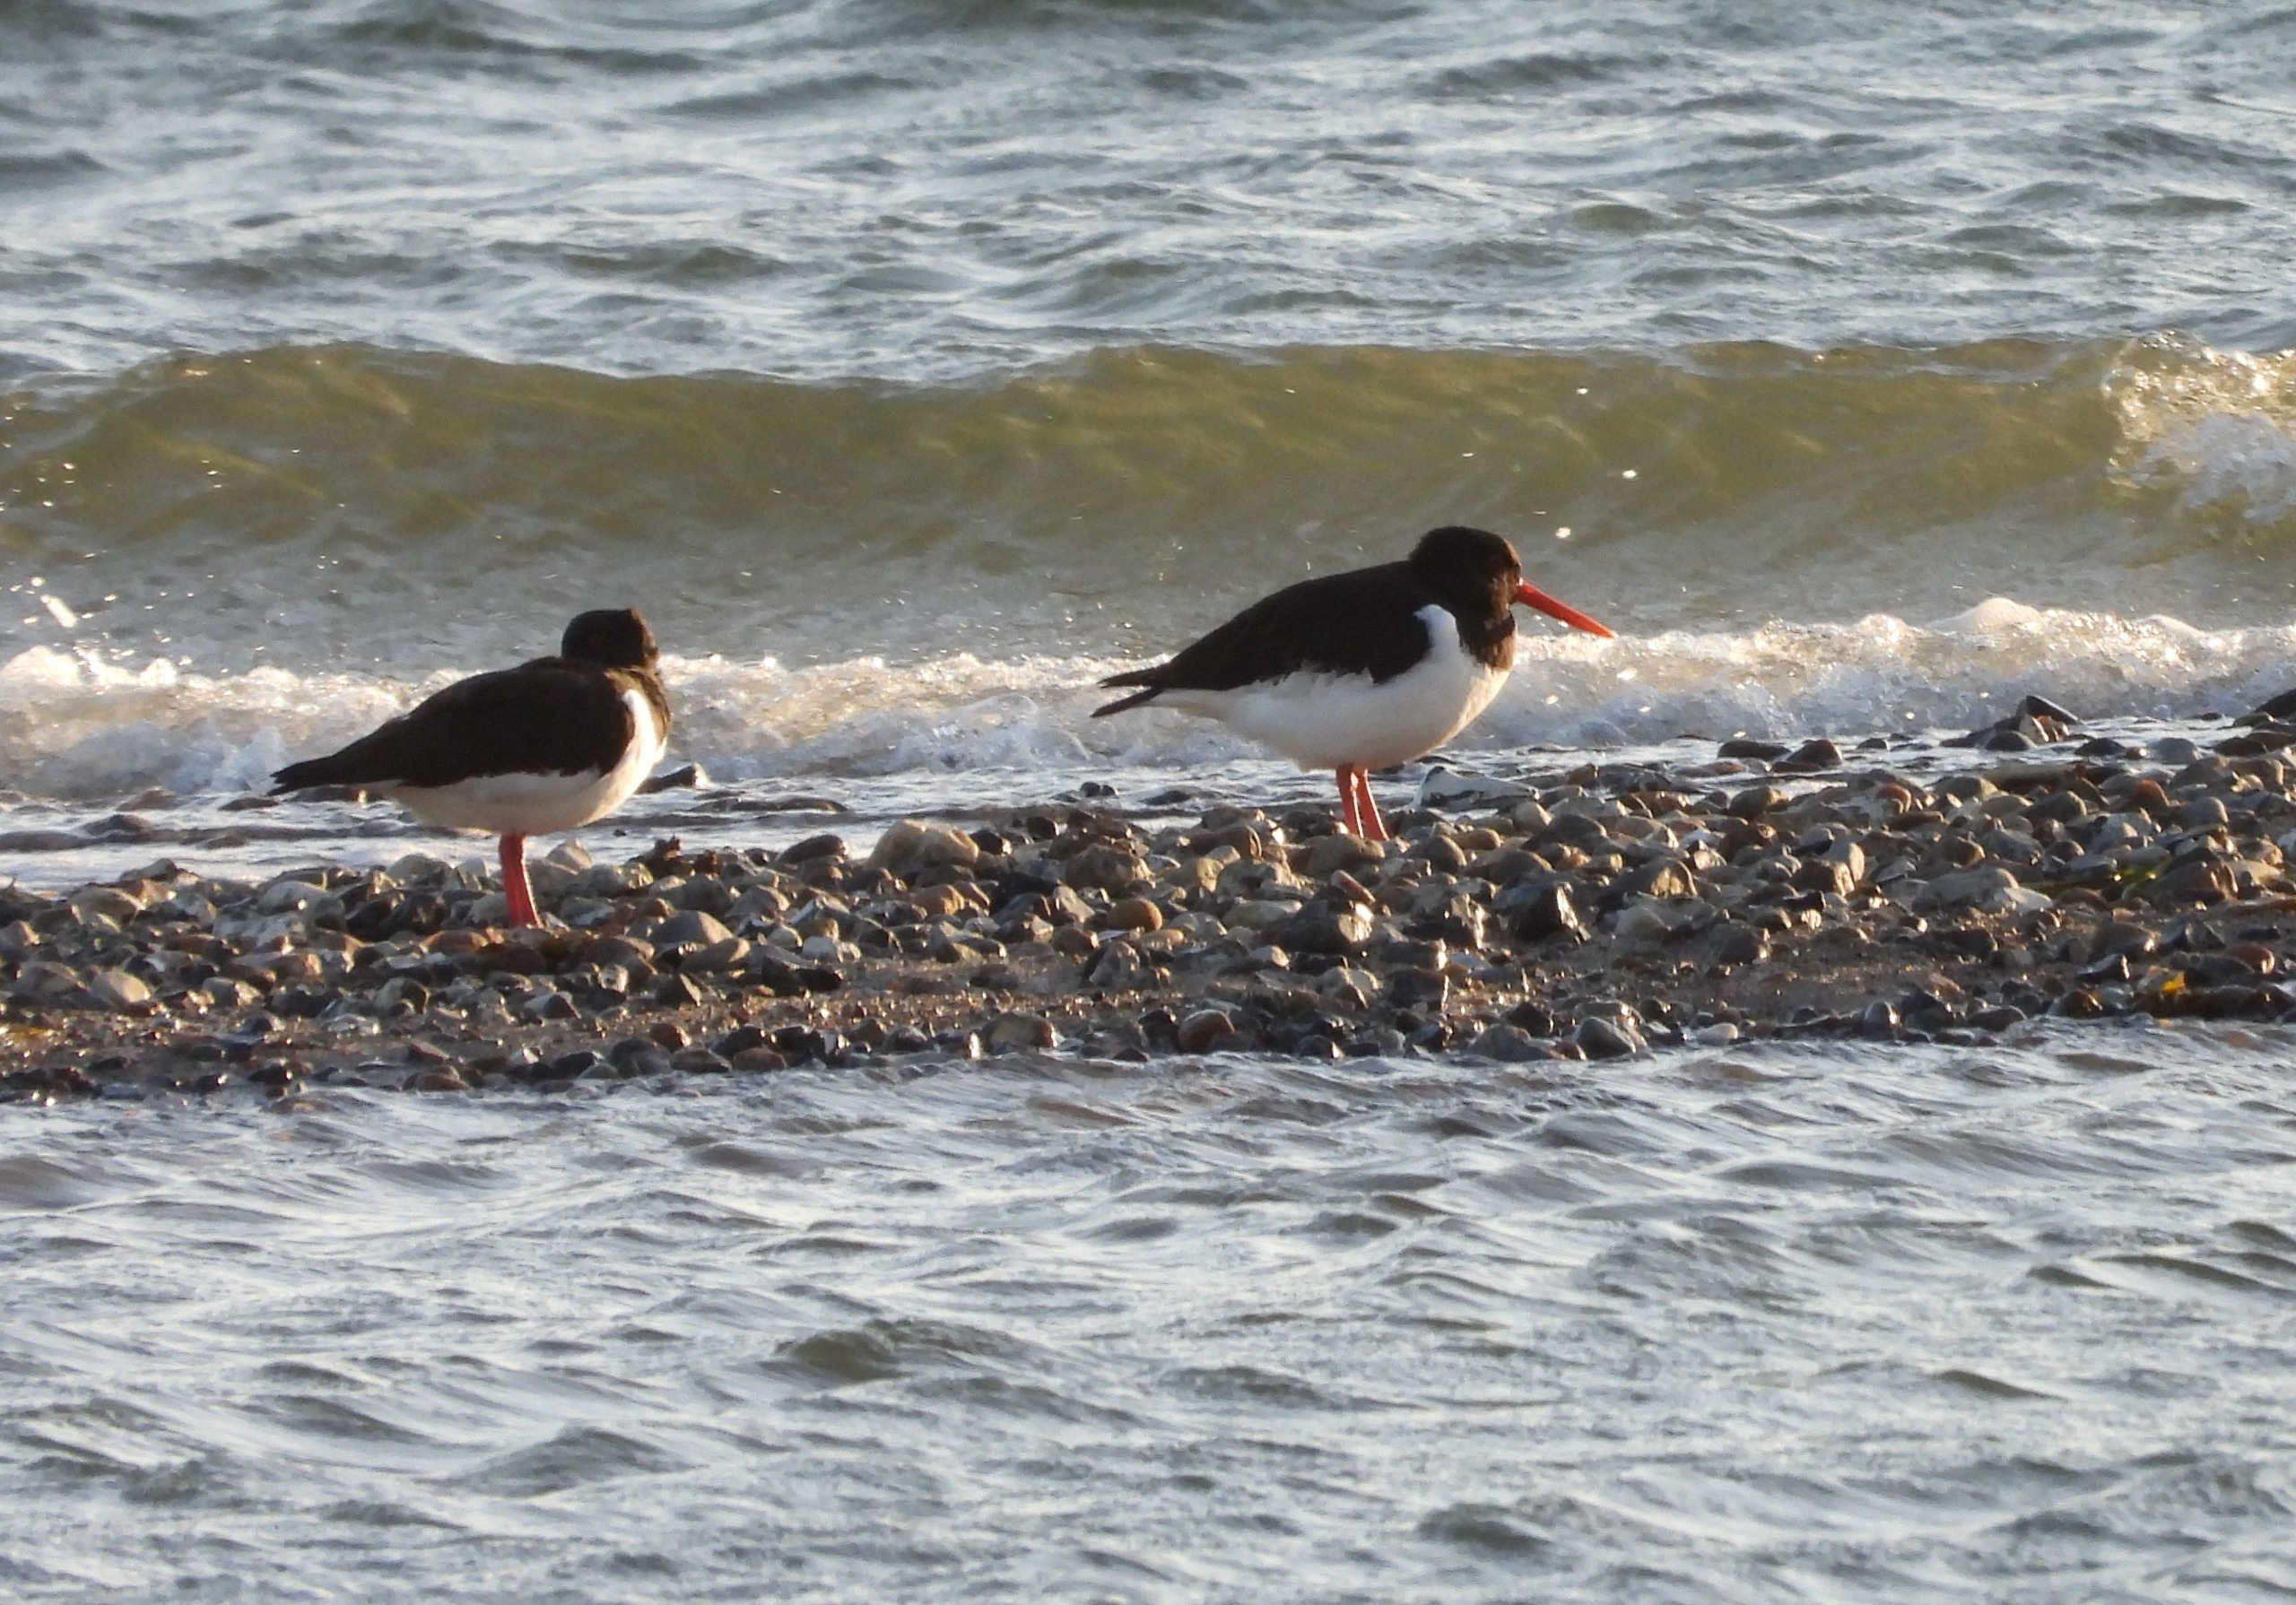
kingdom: Animalia
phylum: Chordata
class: Aves
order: Charadriiformes
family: Haematopodidae
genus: Haematopus
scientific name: Haematopus ostralegus
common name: Strandskade
